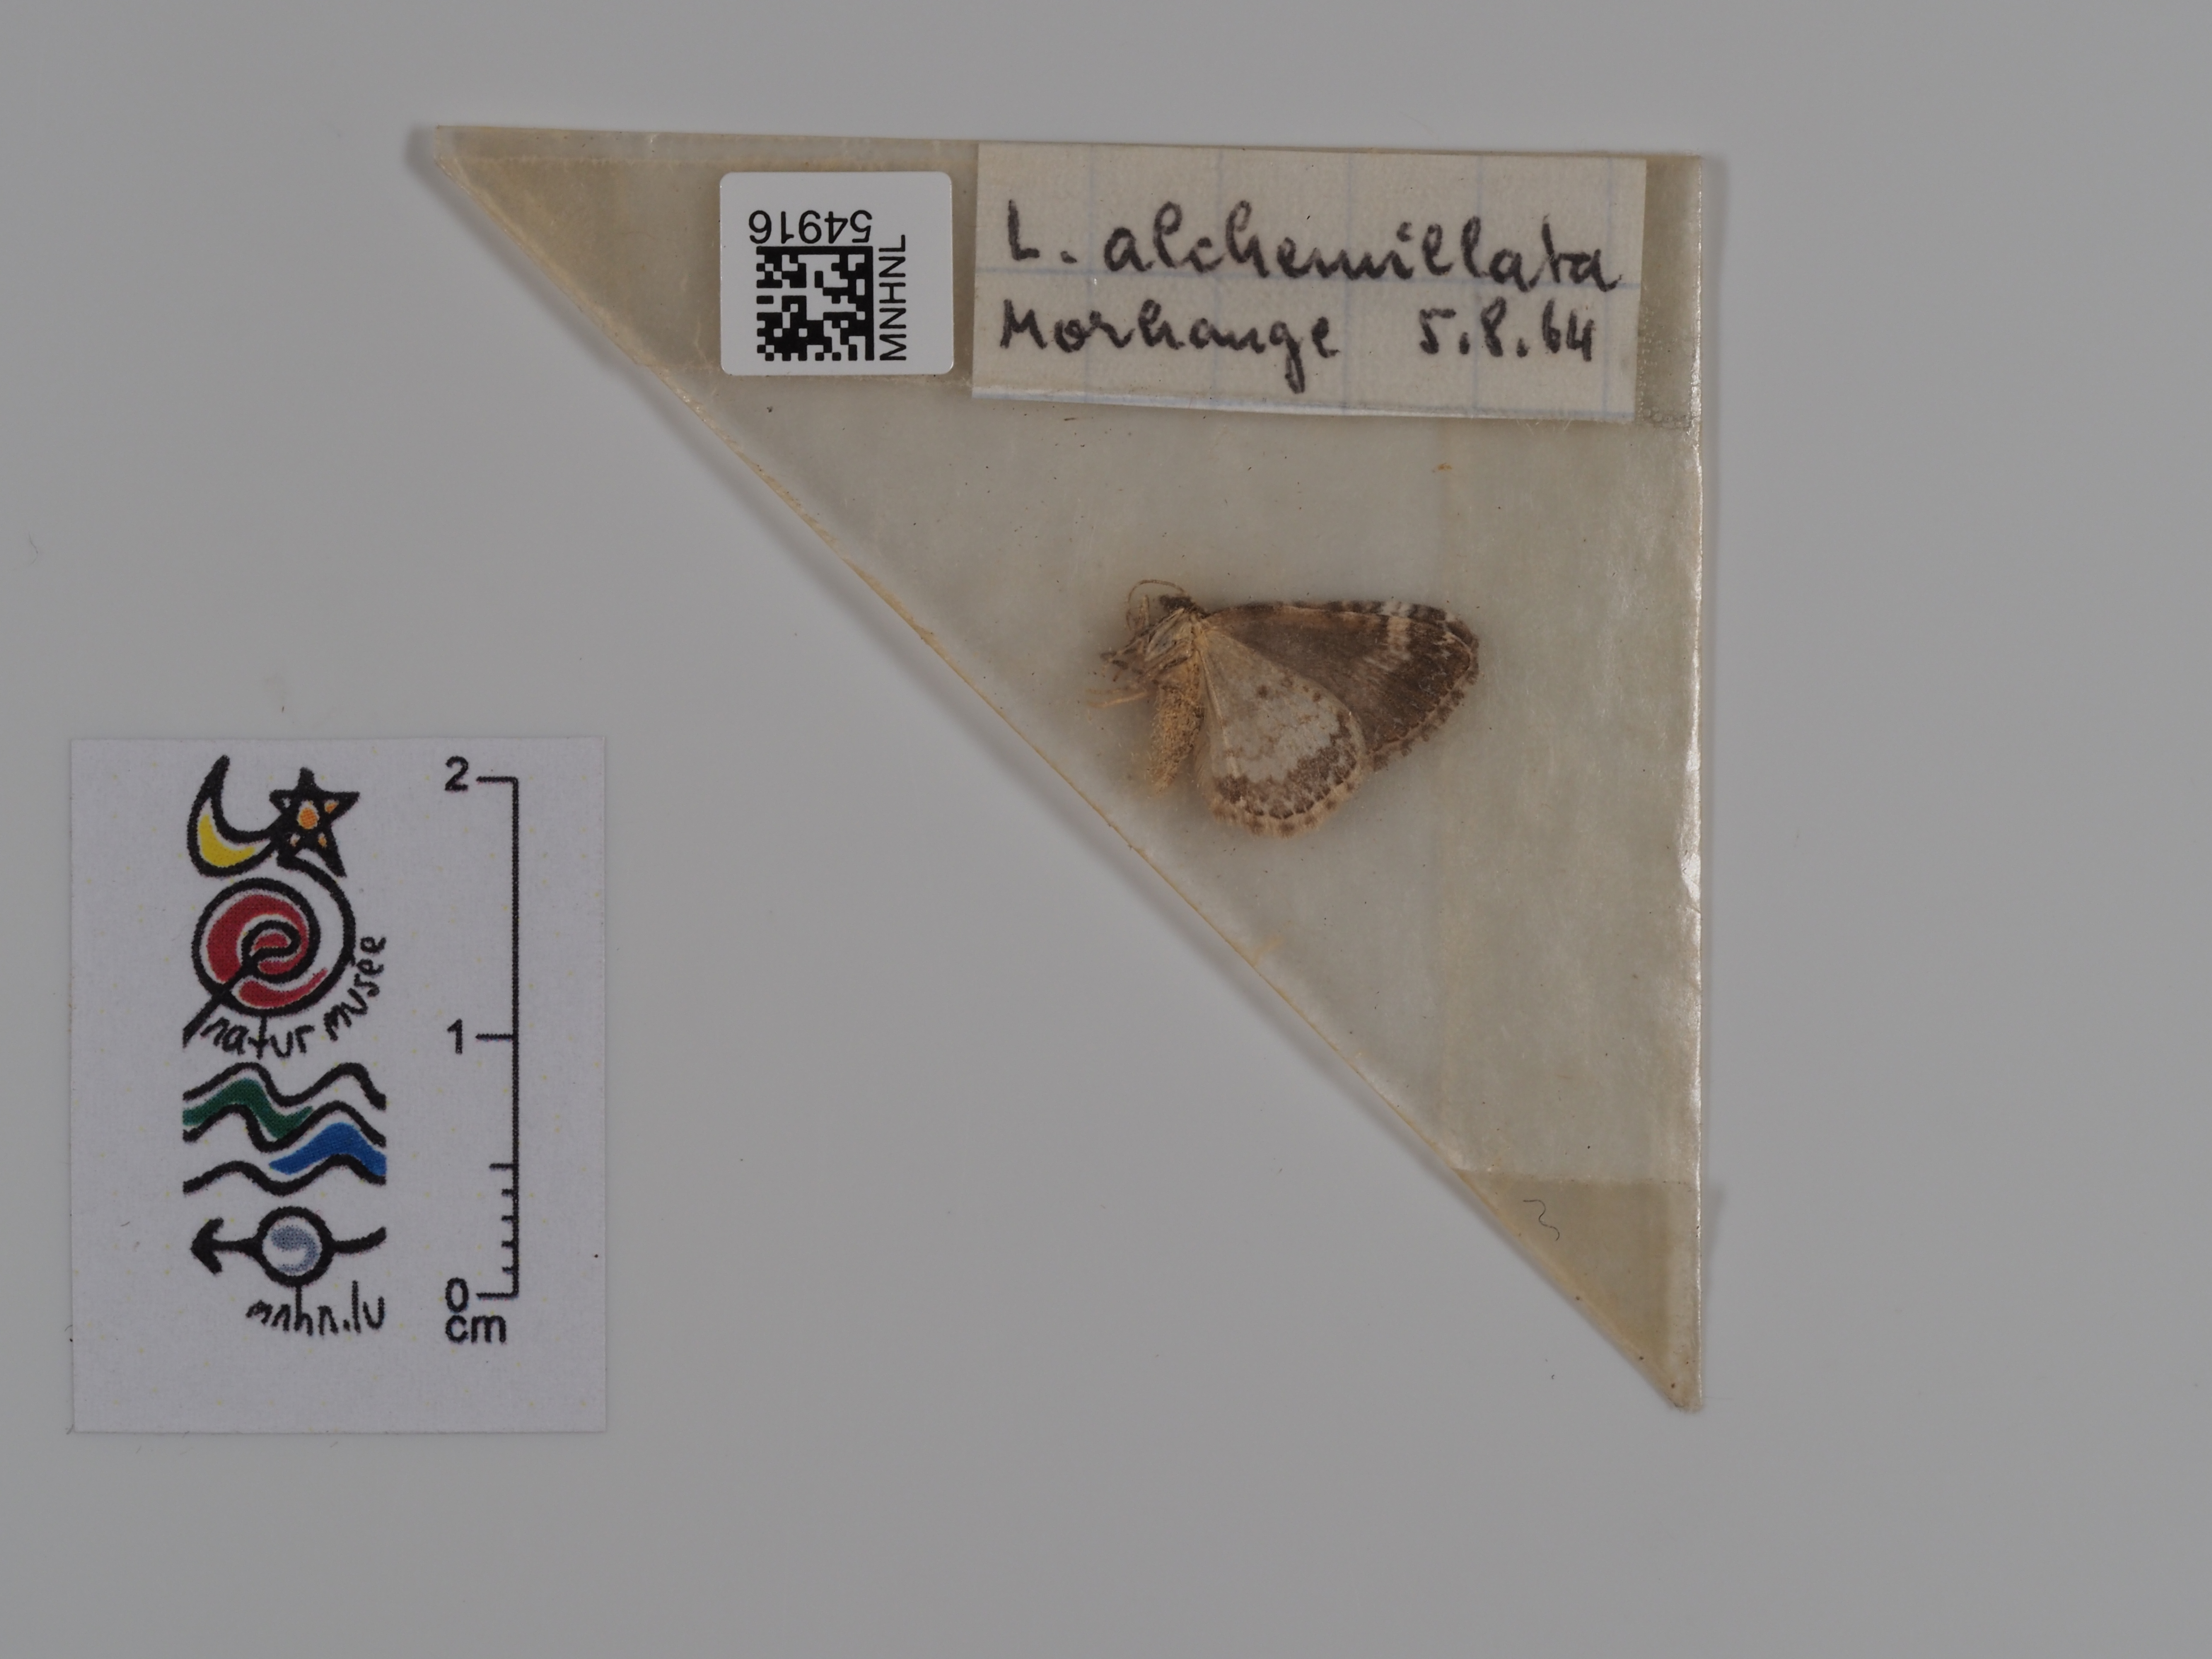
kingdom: Animalia
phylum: Arthropoda
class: Insecta
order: Lepidoptera
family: Geometridae
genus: Perizoma
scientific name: Perizoma alchemillata
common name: Small rivulet
